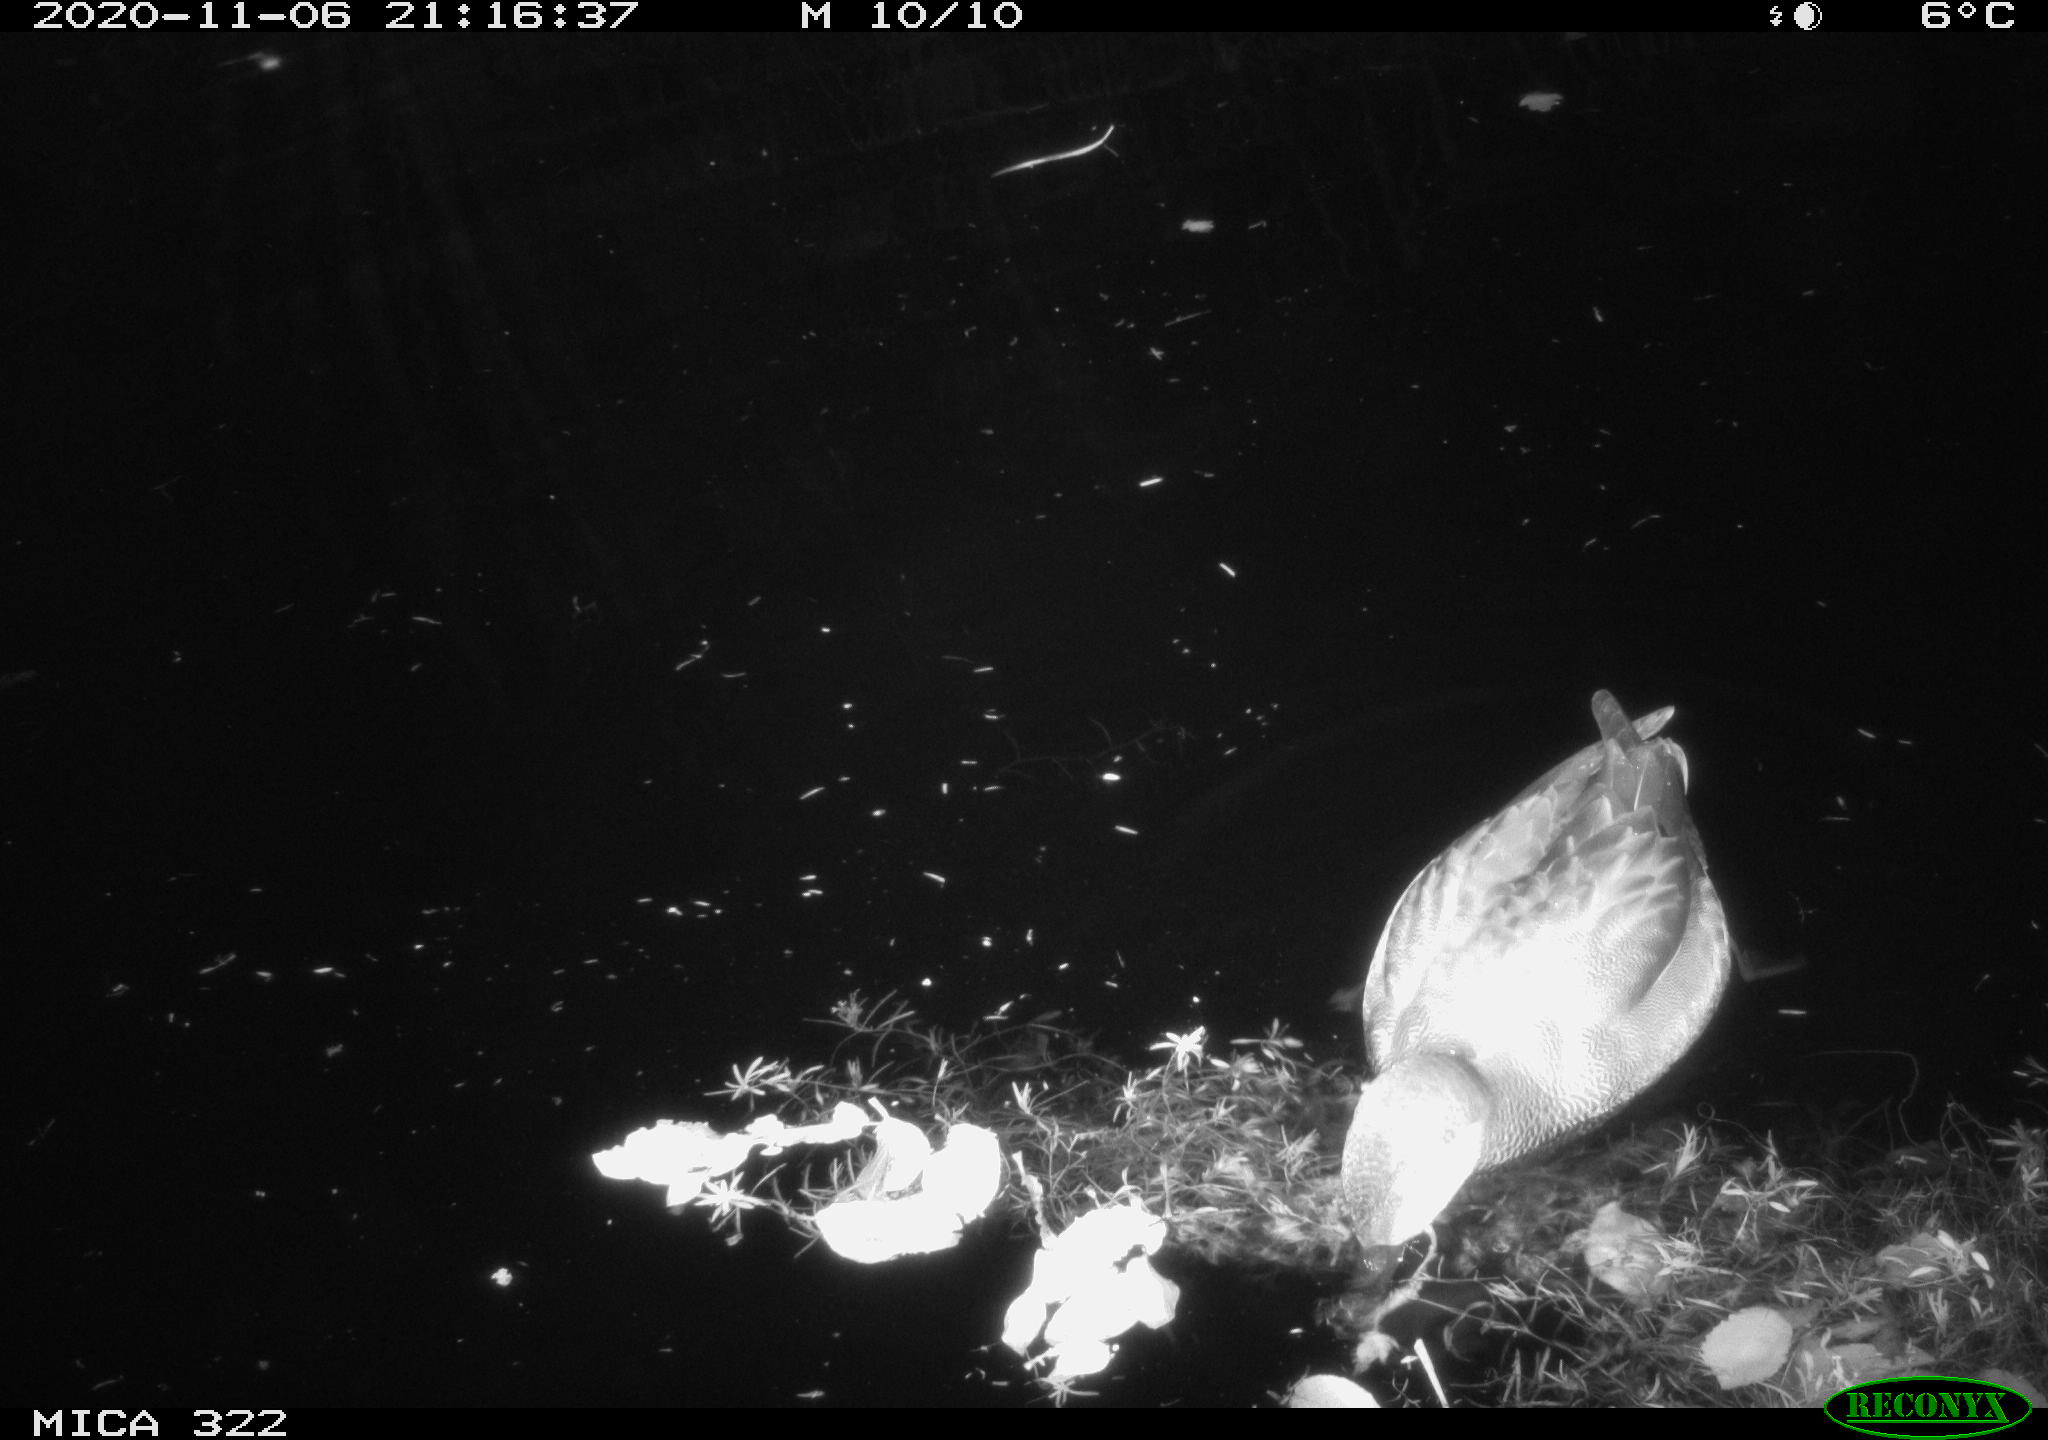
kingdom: Animalia
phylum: Chordata
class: Aves
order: Anseriformes
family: Anatidae
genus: Anas
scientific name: Anas platyrhynchos
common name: Mallard
